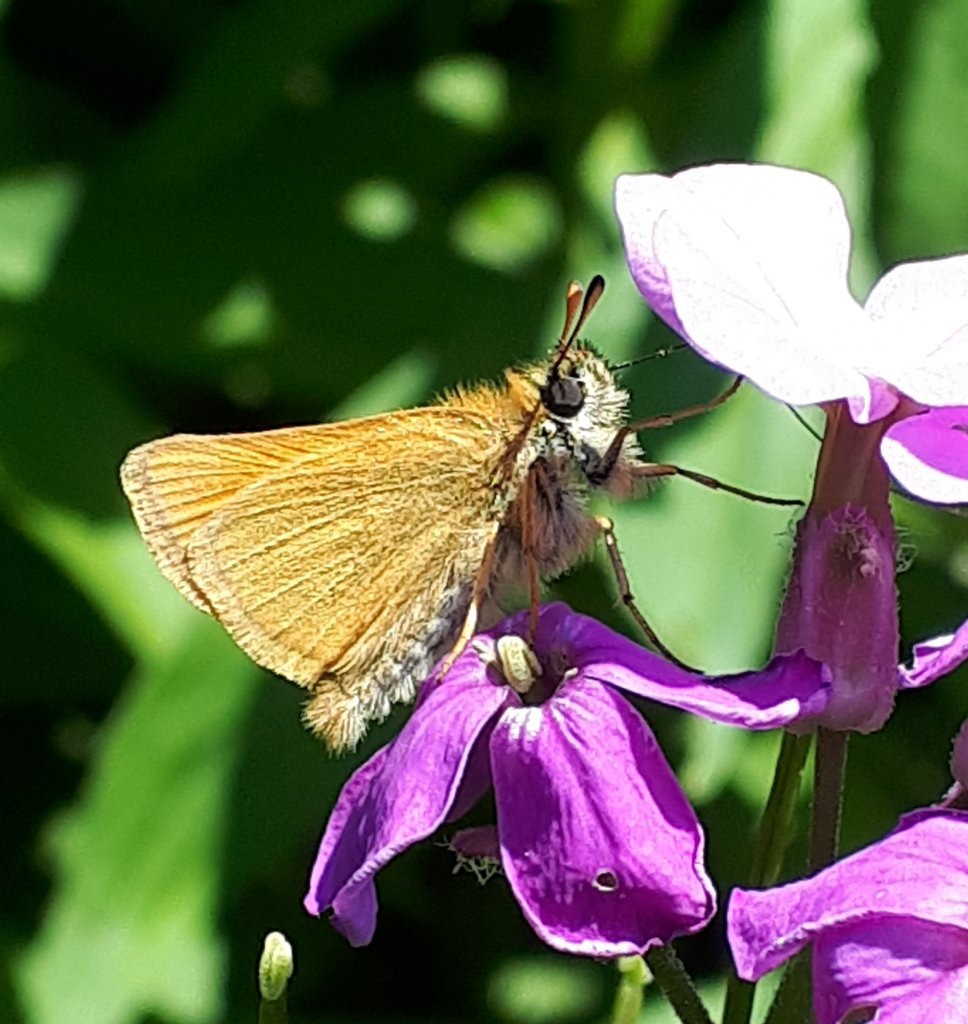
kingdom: Animalia
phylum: Arthropoda
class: Insecta
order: Lepidoptera
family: Hesperiidae
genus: Thymelicus
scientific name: Thymelicus lineola
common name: European Skipper
